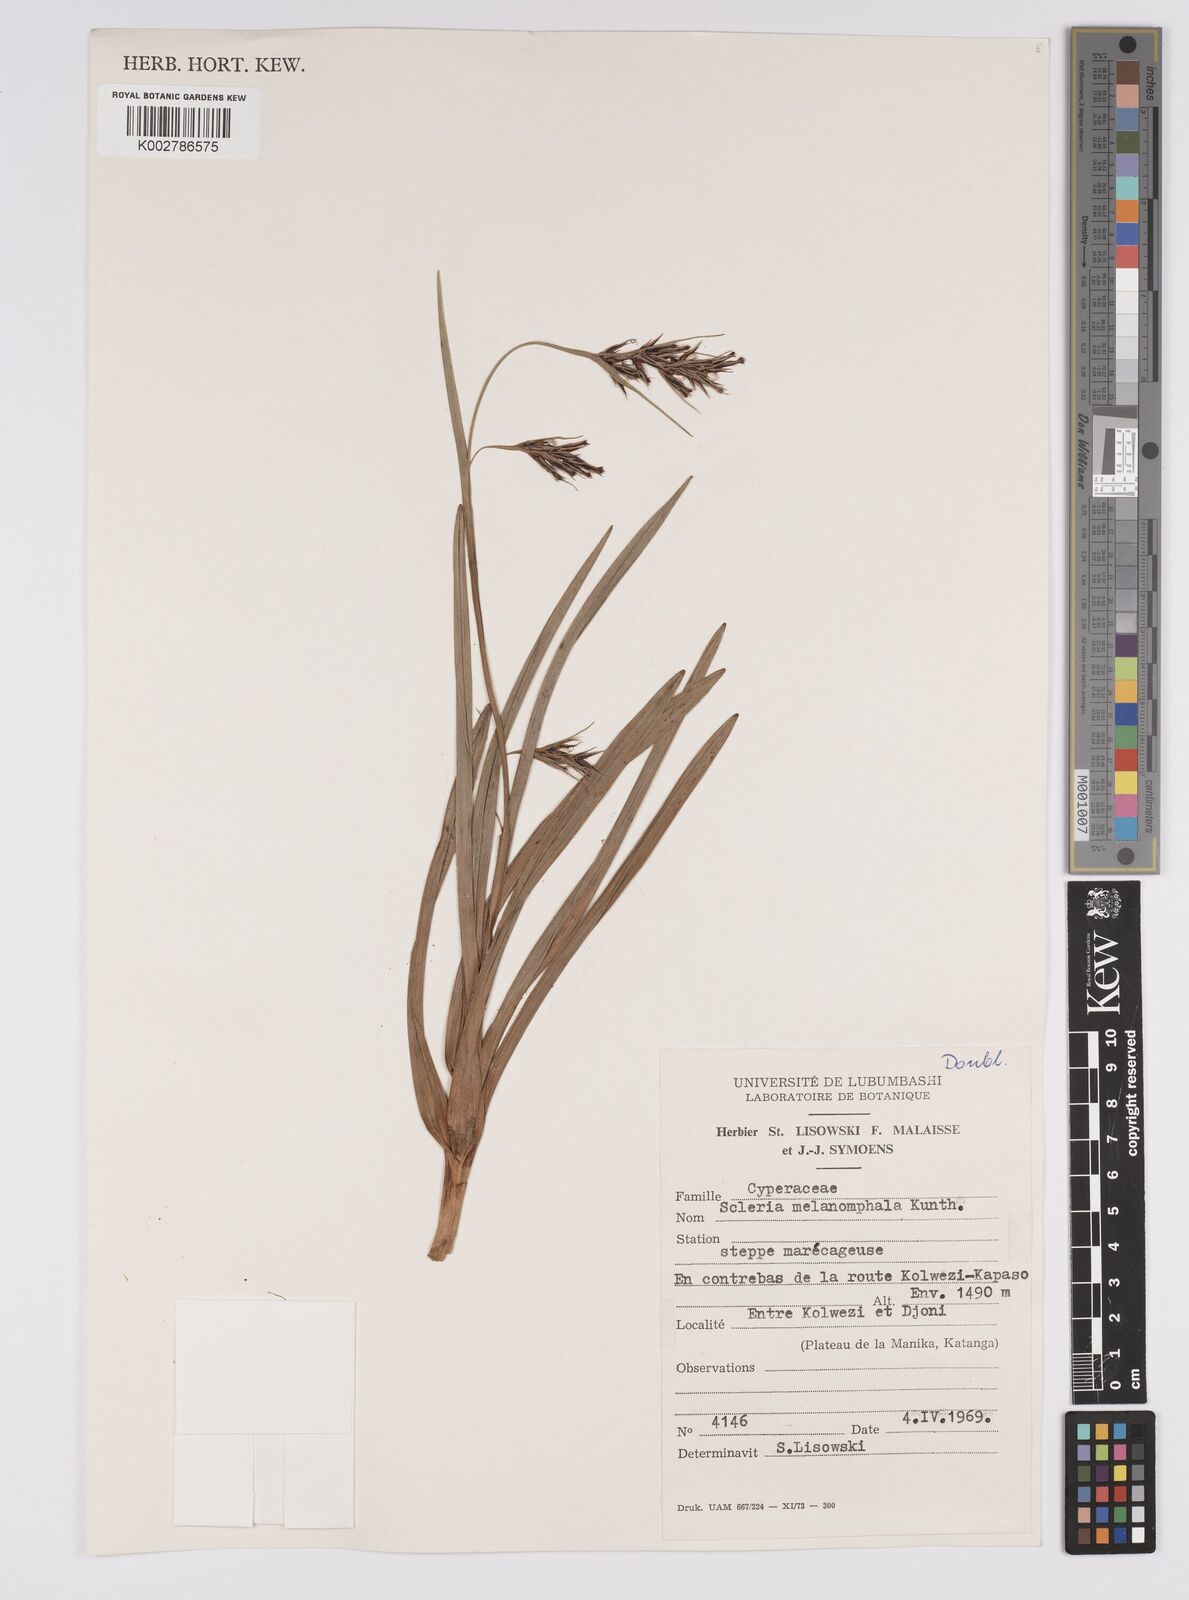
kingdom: Plantae
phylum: Tracheophyta
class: Liliopsida
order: Poales
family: Cyperaceae
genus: Scleria
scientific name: Scleria melanomphala
